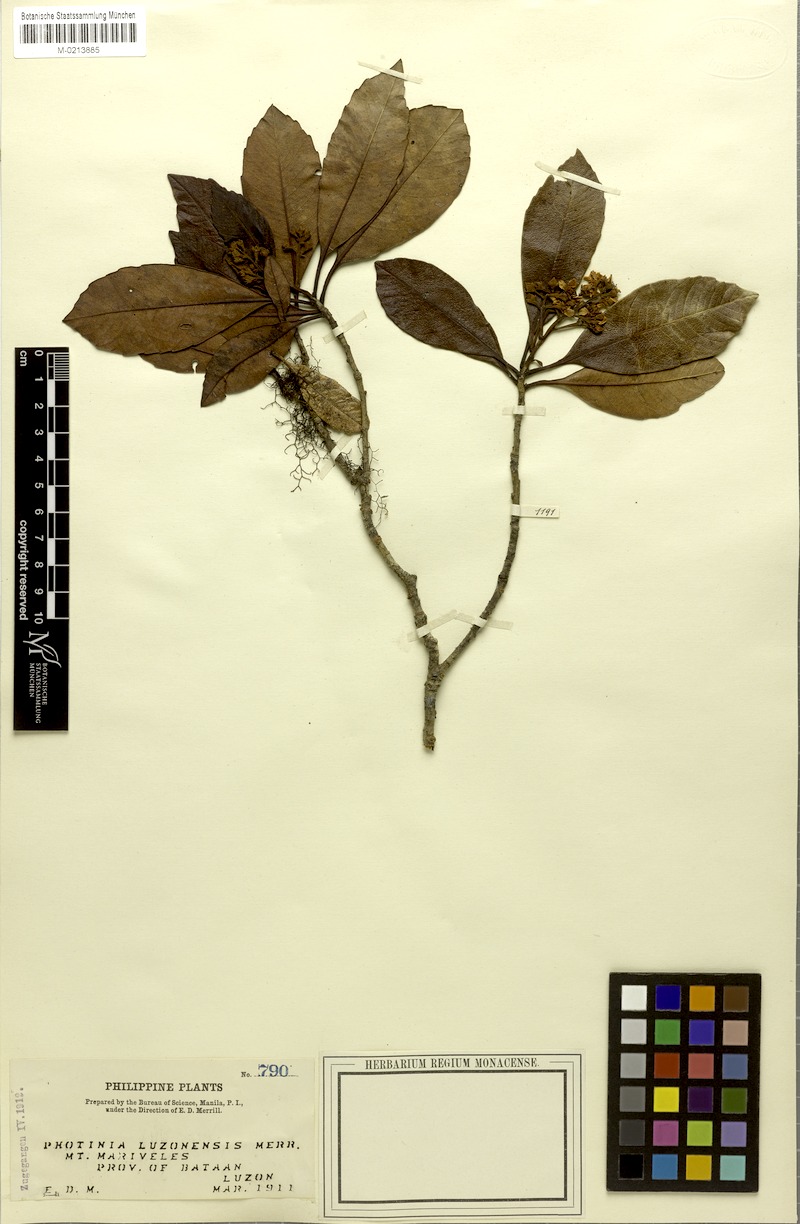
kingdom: Plantae
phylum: Tracheophyta
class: Magnoliopsida
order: Rosales
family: Rosaceae
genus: Rhaphiolepis
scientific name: Rhaphiolepis philippinensis
